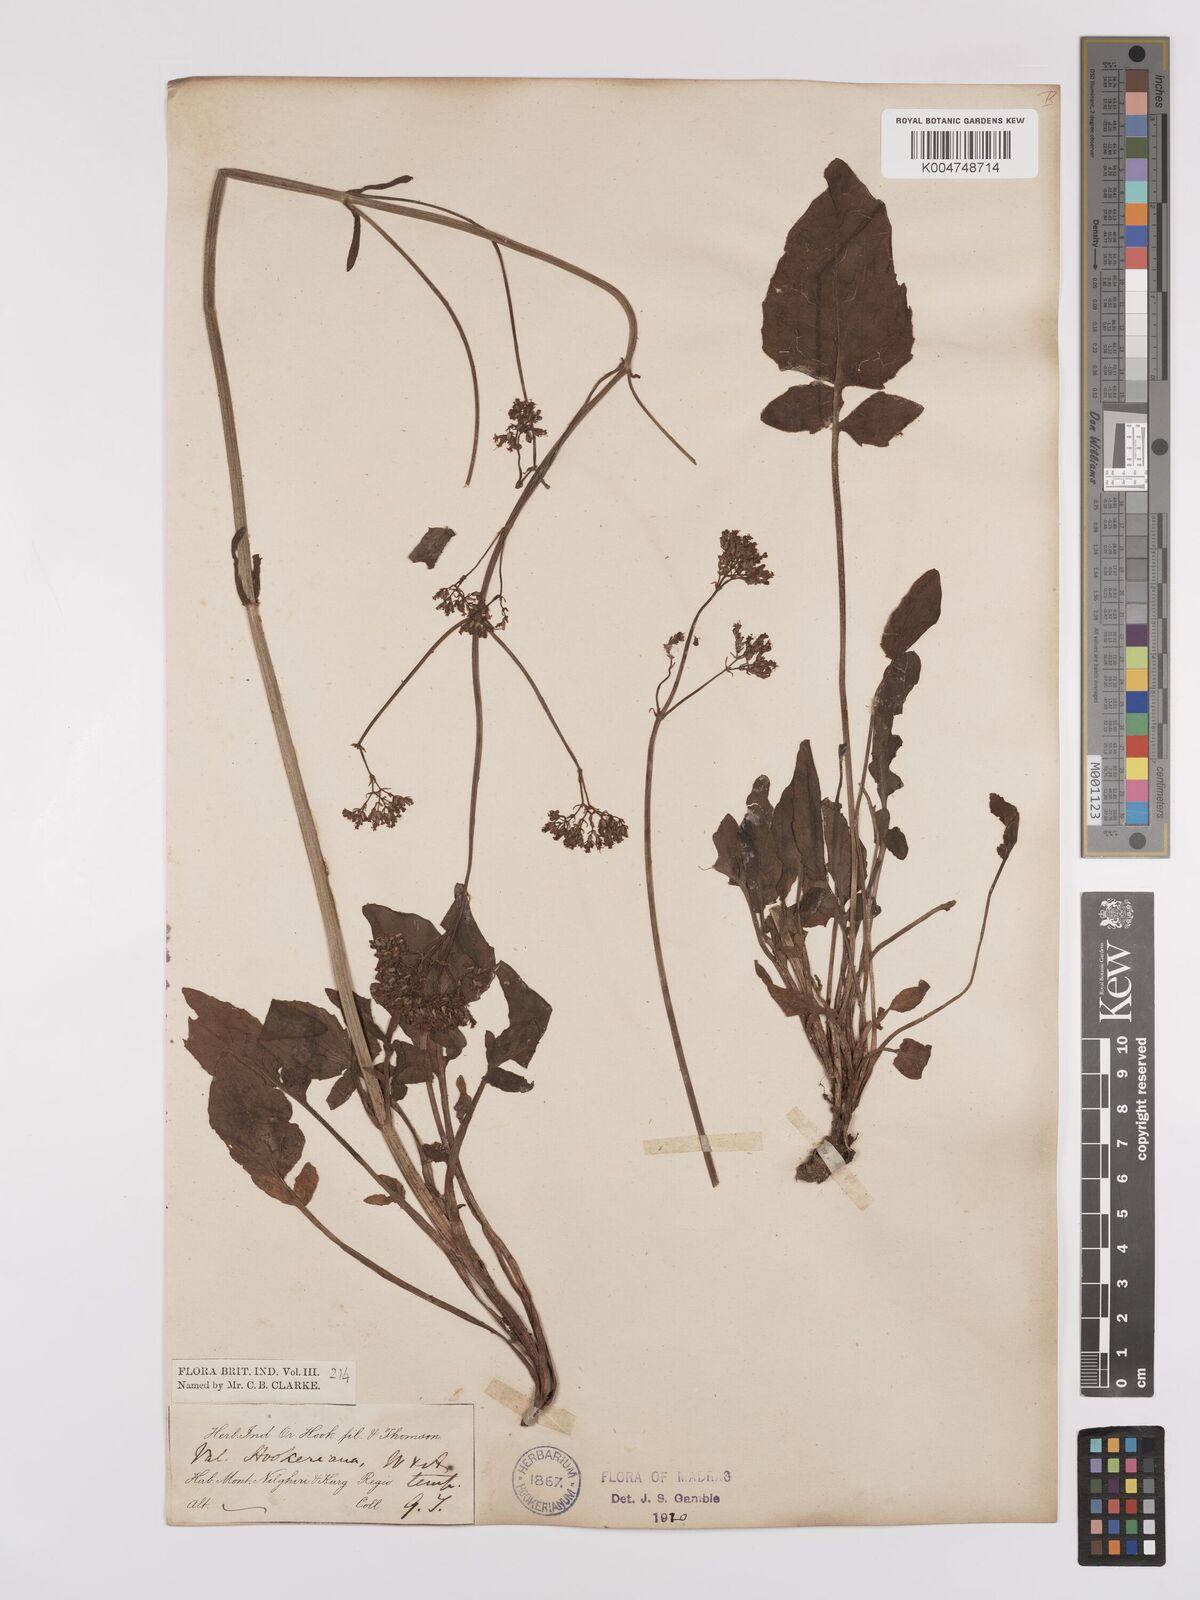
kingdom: Plantae
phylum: Tracheophyta
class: Magnoliopsida
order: Dipsacales
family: Caprifoliaceae
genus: Valeriana
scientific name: Valeriana hardwickei
